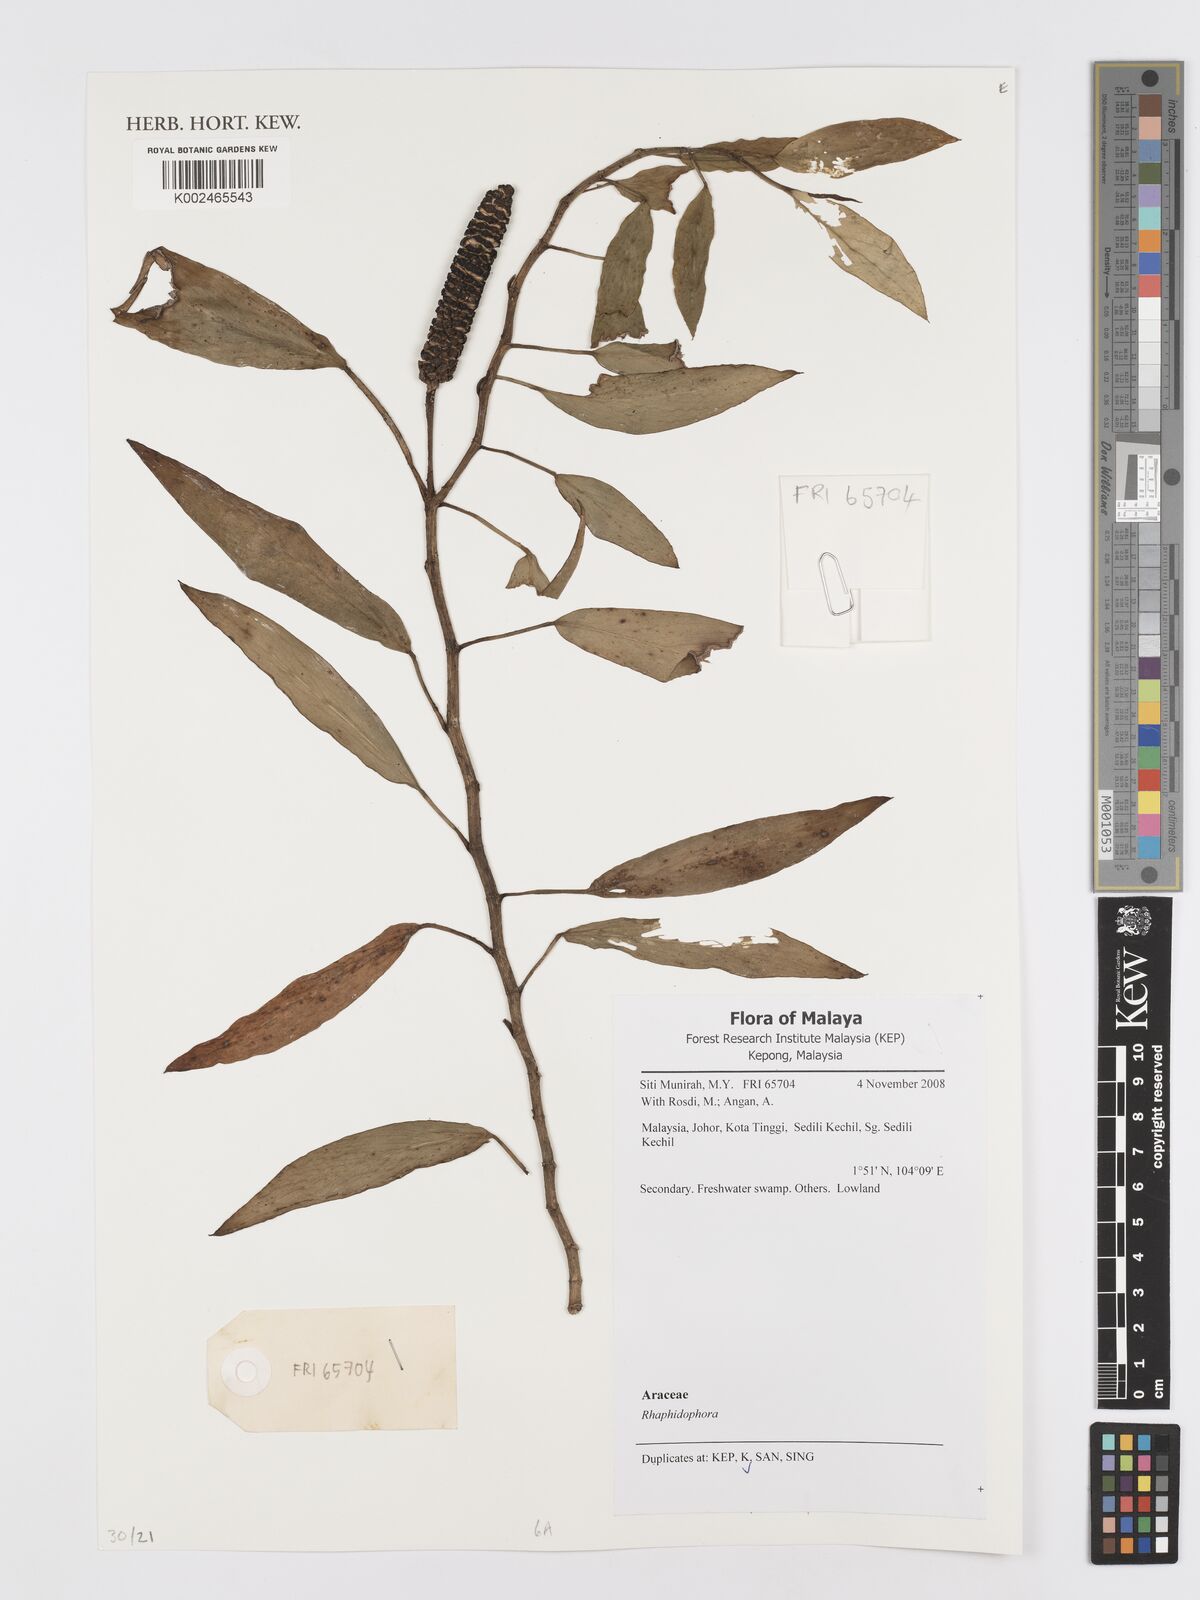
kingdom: Plantae
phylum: Tracheophyta
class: Liliopsida
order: Alismatales
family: Araceae
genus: Rhaphidophora
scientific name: Rhaphidophora
